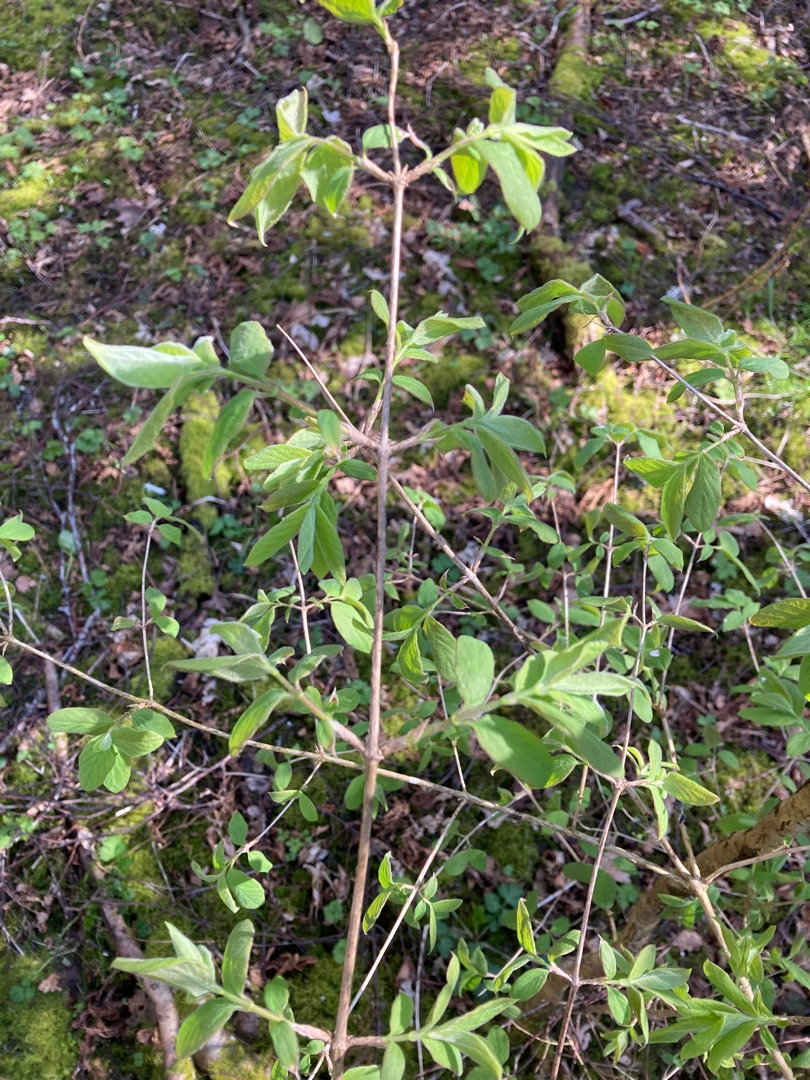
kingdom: Plantae
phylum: Tracheophyta
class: Magnoliopsida
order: Dipsacales
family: Caprifoliaceae
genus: Lonicera
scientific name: Lonicera xylosteum
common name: Dunet gedeblad
